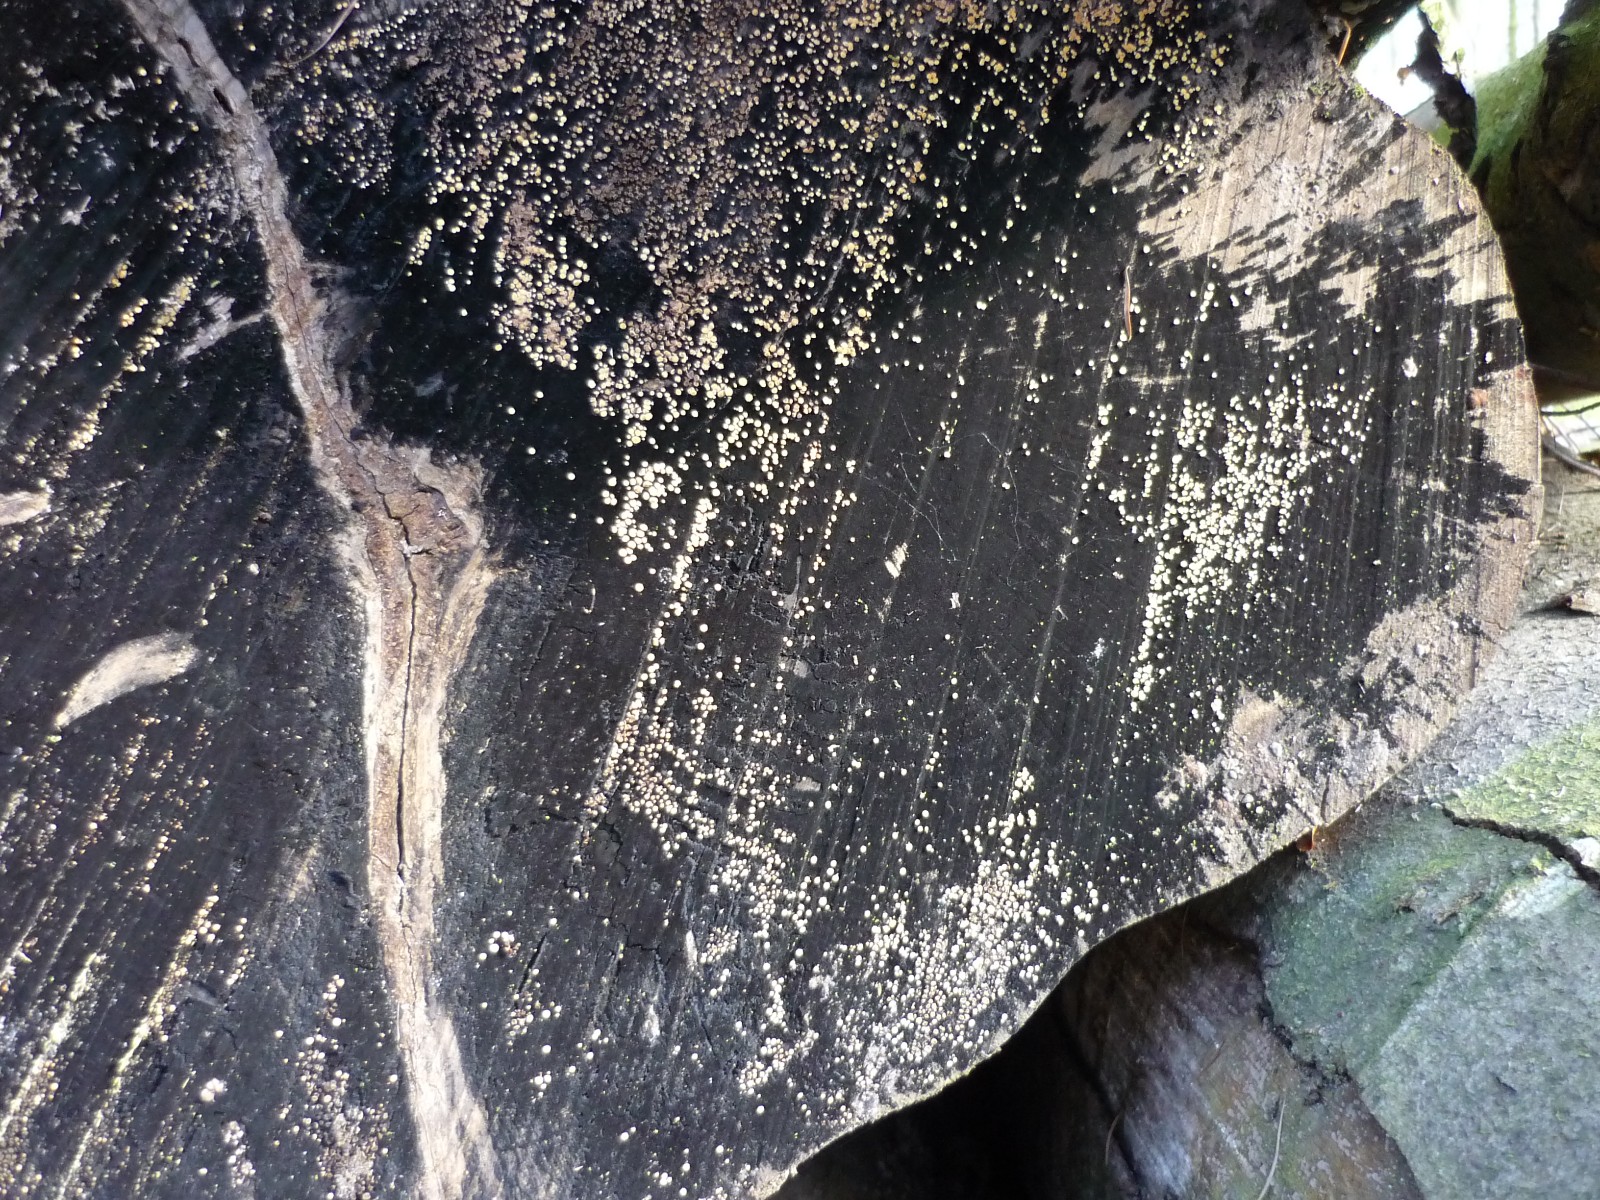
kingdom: Fungi
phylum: Ascomycota
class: Leotiomycetes
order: Helotiales
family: Helotiaceae
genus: Bispora
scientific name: Bispora pallescens
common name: måtte-snitskive
